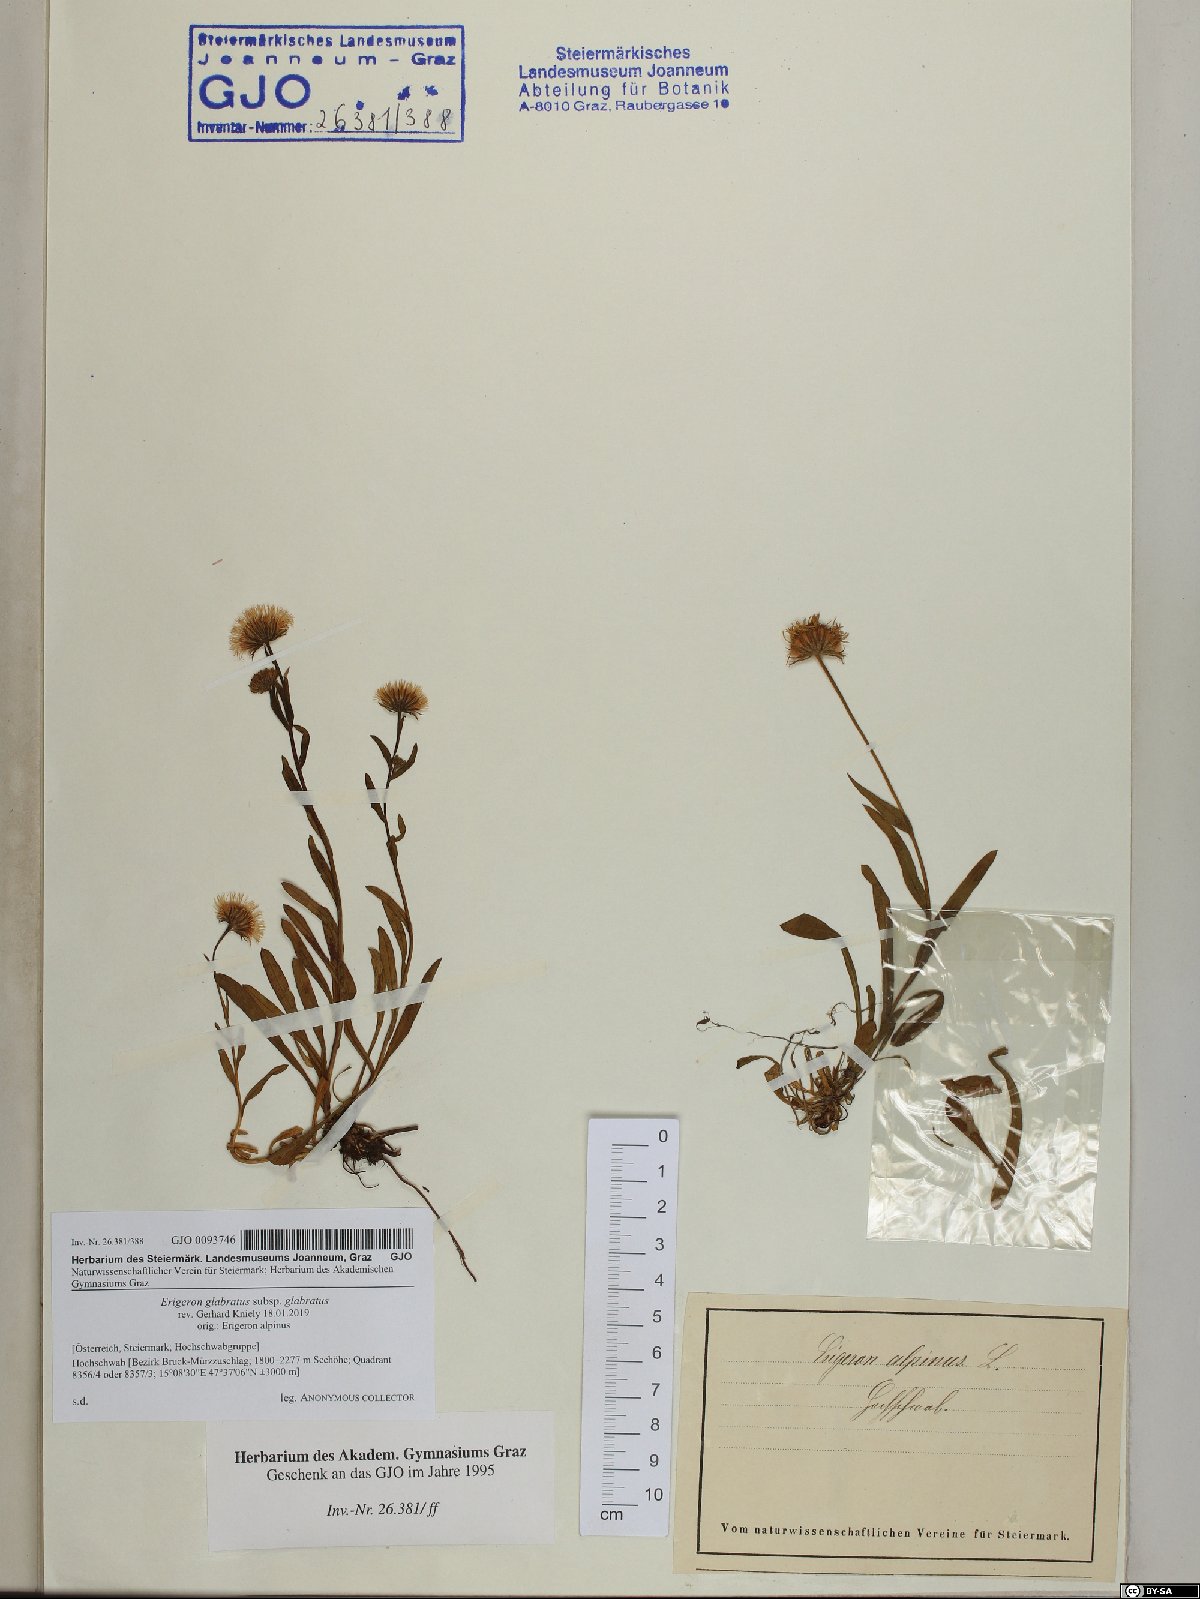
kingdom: Plantae
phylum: Tracheophyta
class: Magnoliopsida
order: Asterales
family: Asteraceae
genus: Erigeron
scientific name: Erigeron glabratus
